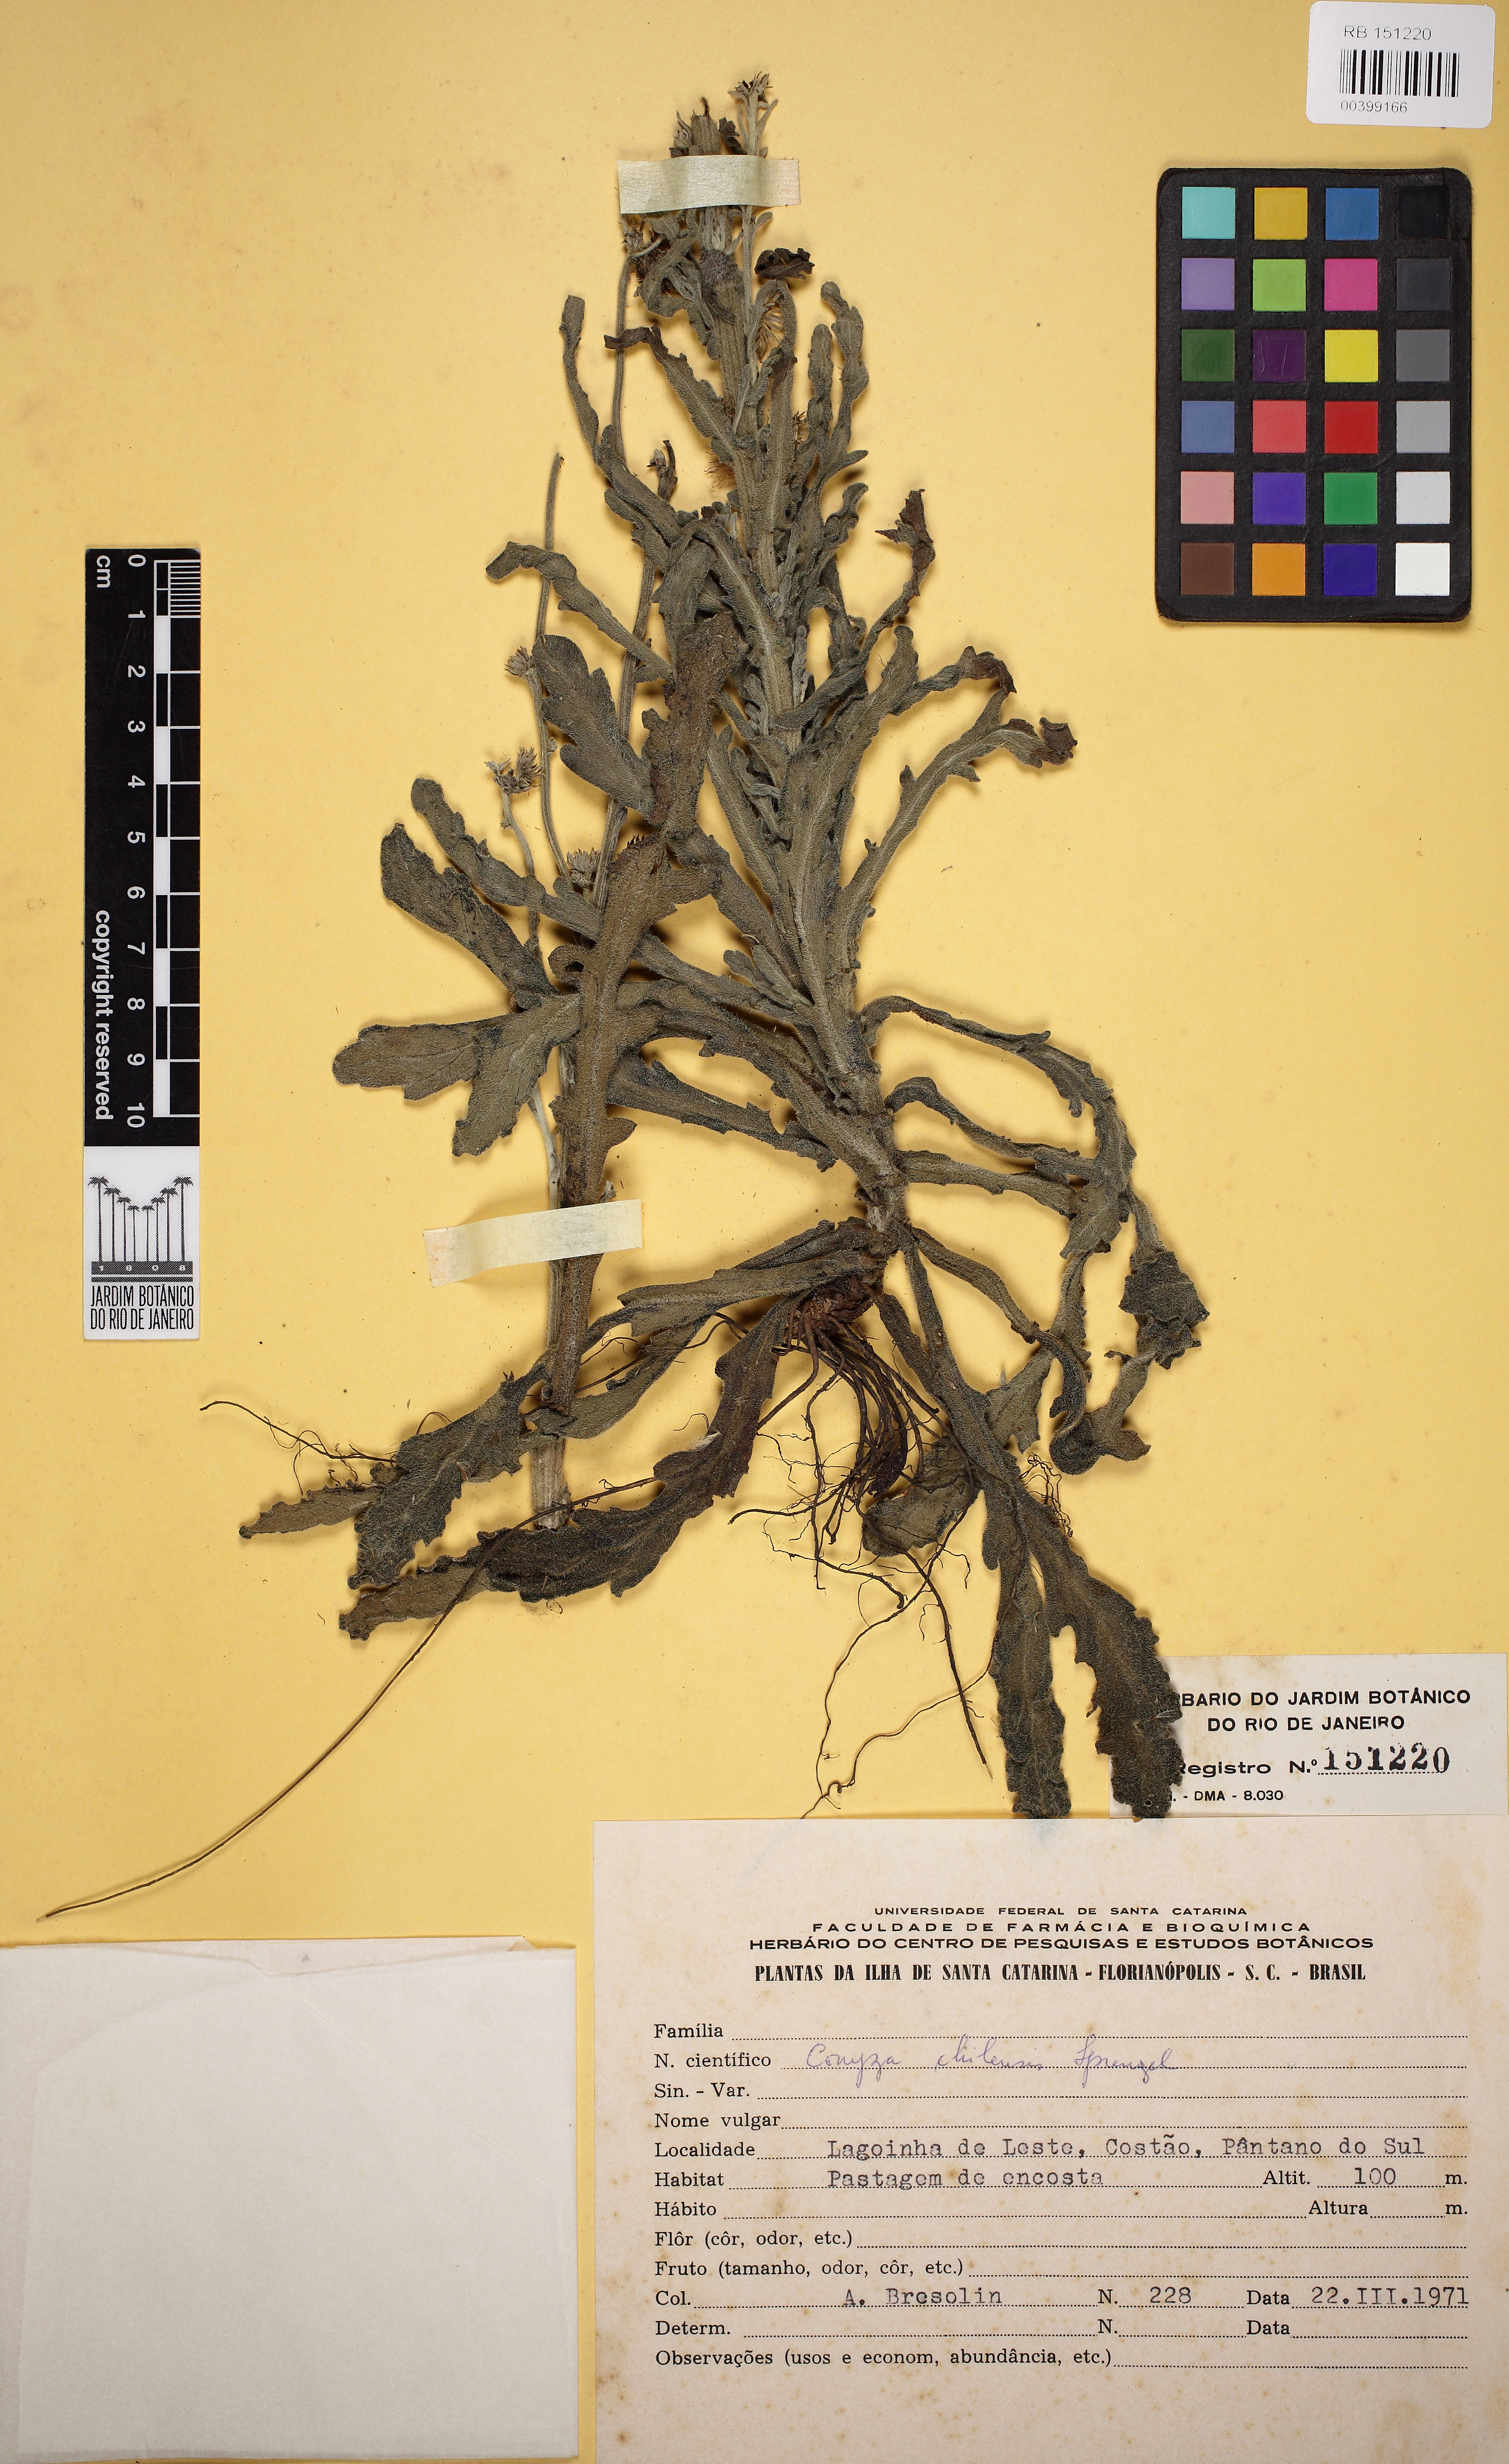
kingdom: Plantae
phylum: Tracheophyta
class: Magnoliopsida
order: Asterales
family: Asteraceae
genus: Erigeron
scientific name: Erigeron primulifolius
